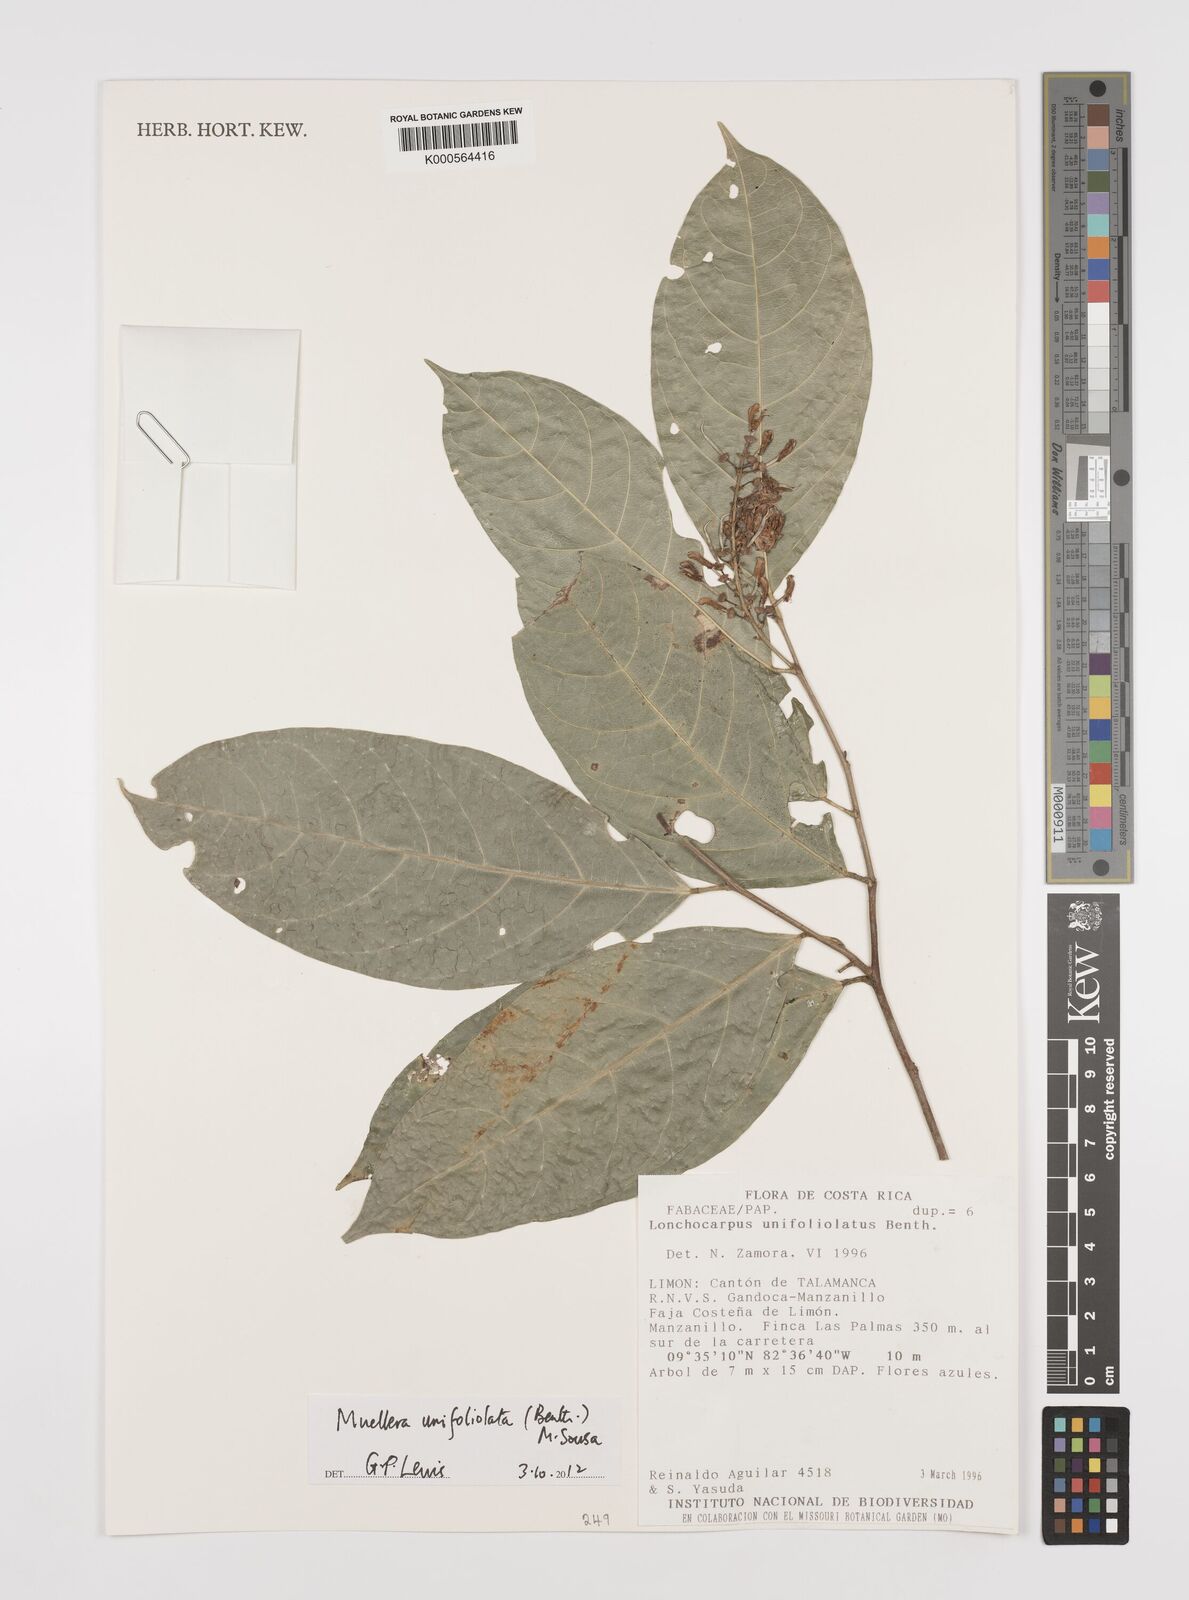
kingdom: Plantae
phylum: Tracheophyta
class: Magnoliopsida
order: Fabales
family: Fabaceae
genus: Muellera
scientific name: Muellera unifoliolata
